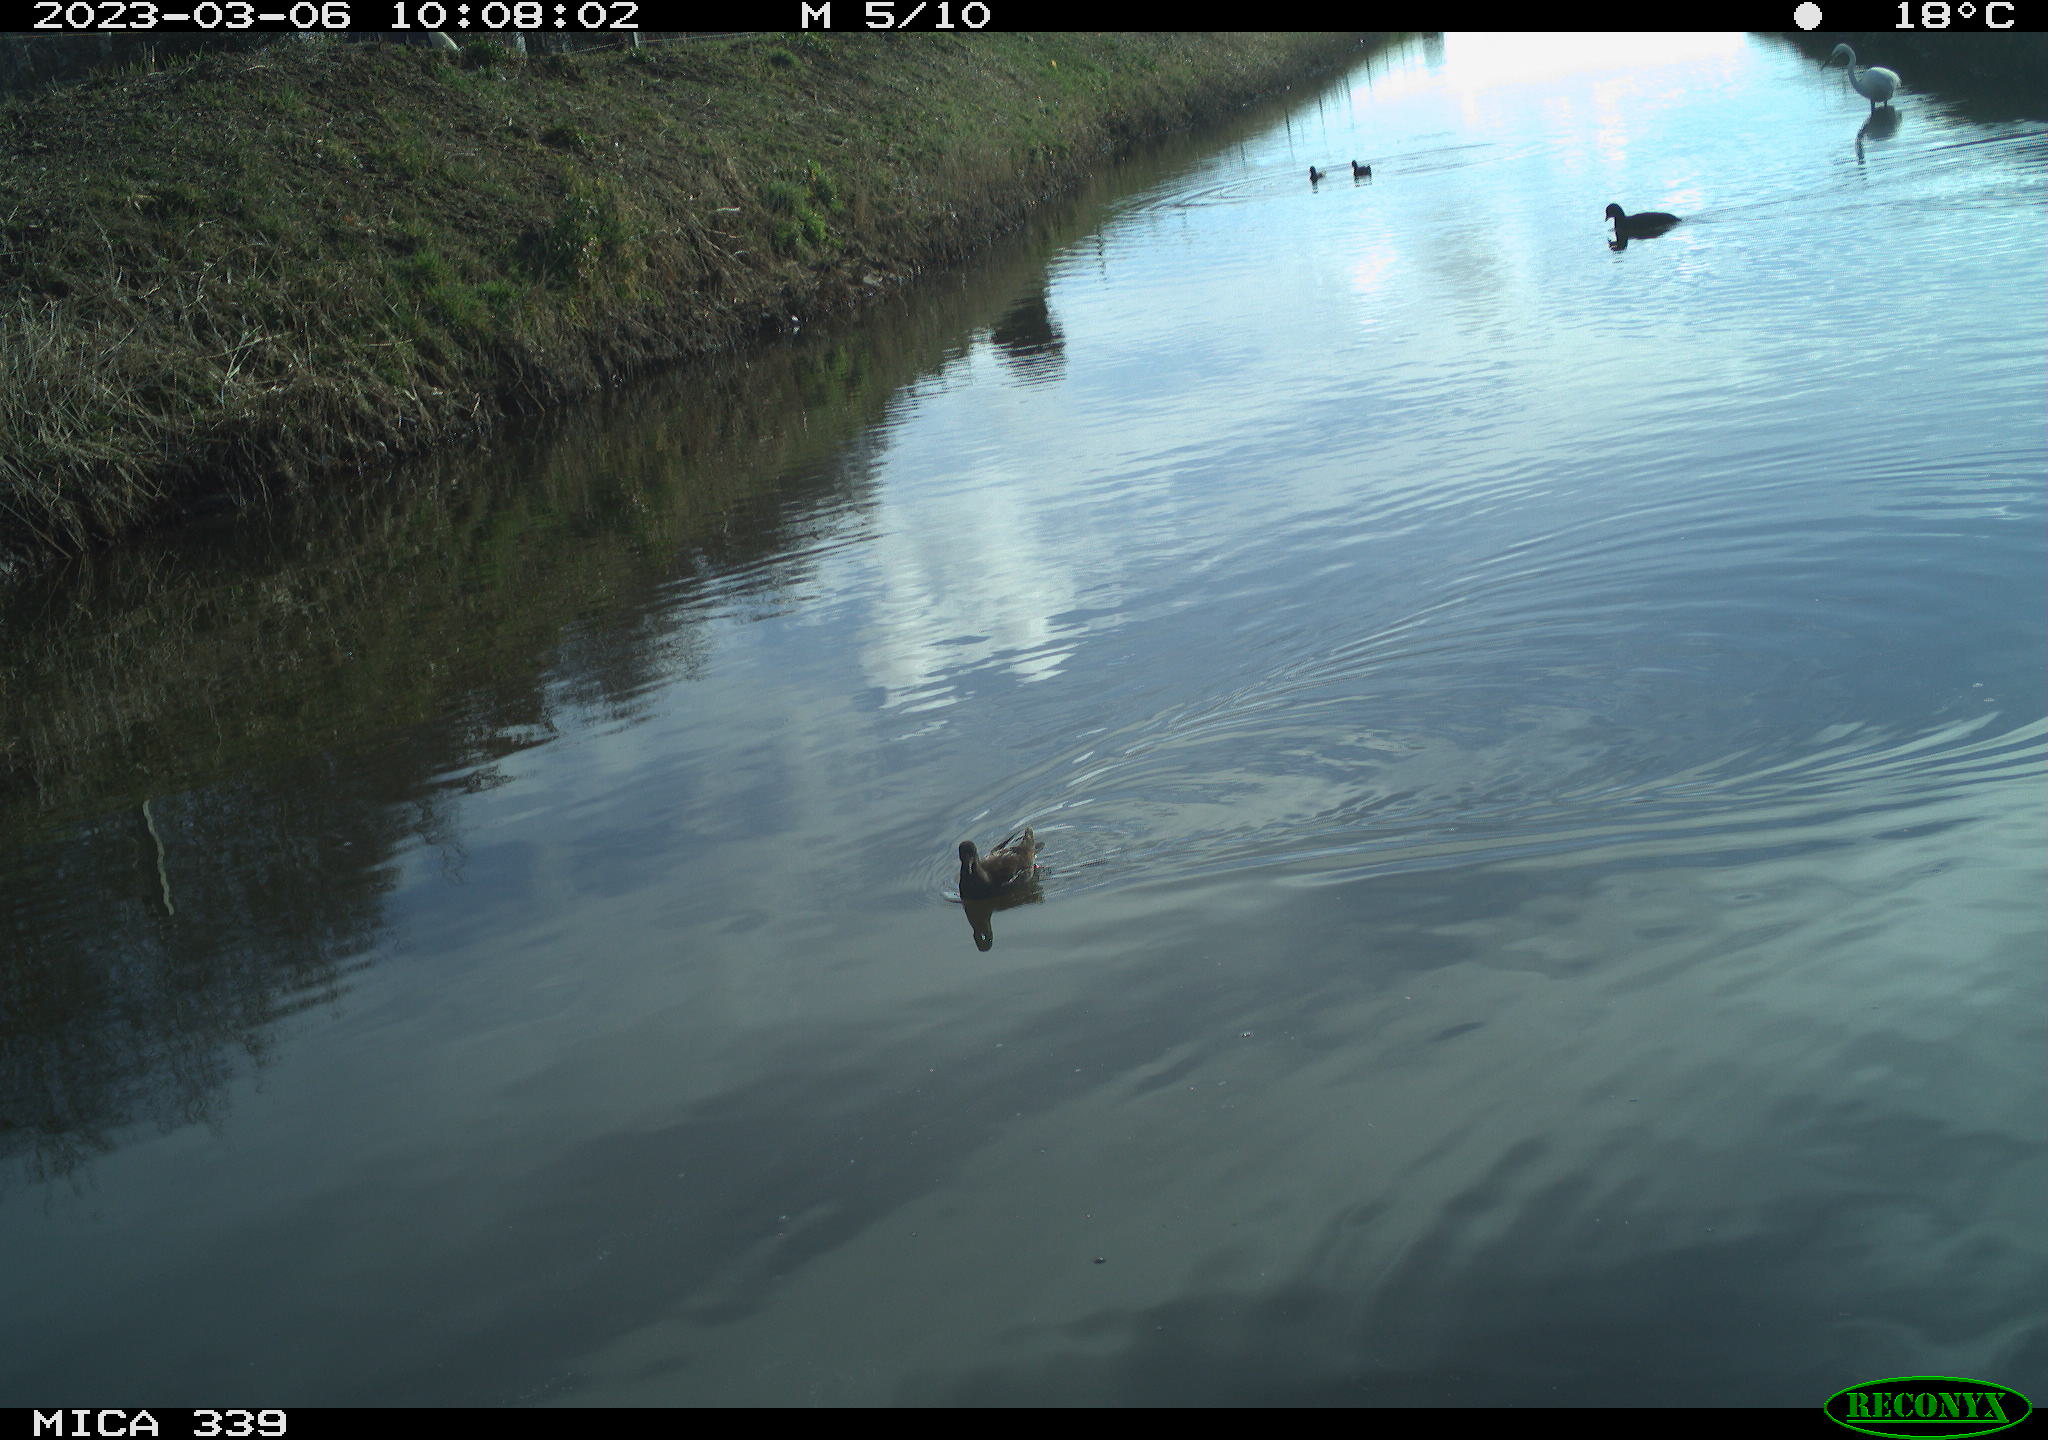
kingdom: Animalia
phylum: Chordata
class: Aves
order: Gruiformes
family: Rallidae
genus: Gallinula
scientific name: Gallinula chloropus
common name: Common moorhen
